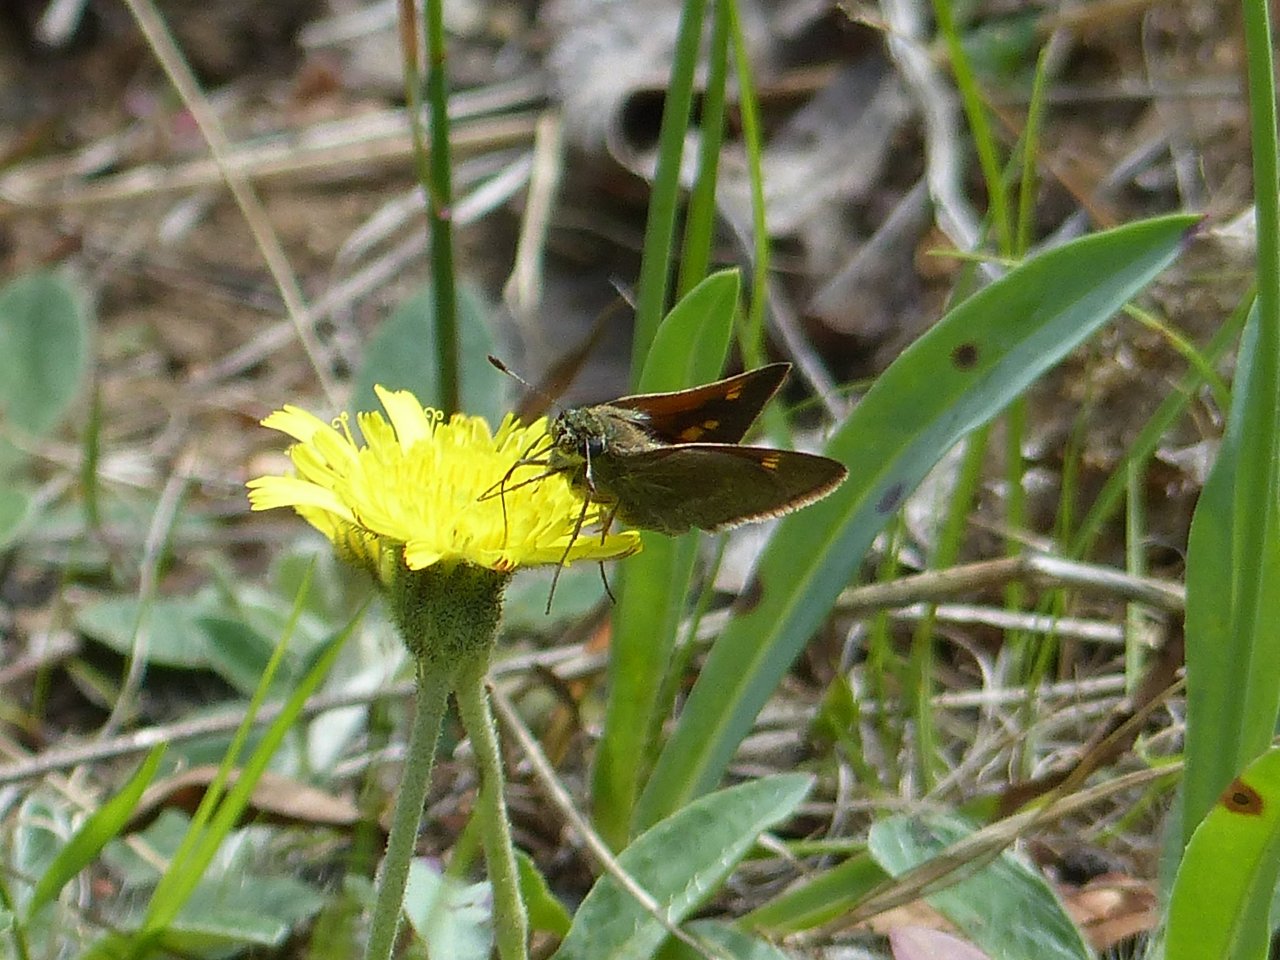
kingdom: Animalia
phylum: Arthropoda
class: Insecta
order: Lepidoptera
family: Hesperiidae
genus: Polites
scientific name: Polites themistocles
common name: Tawny-edged Skipper
